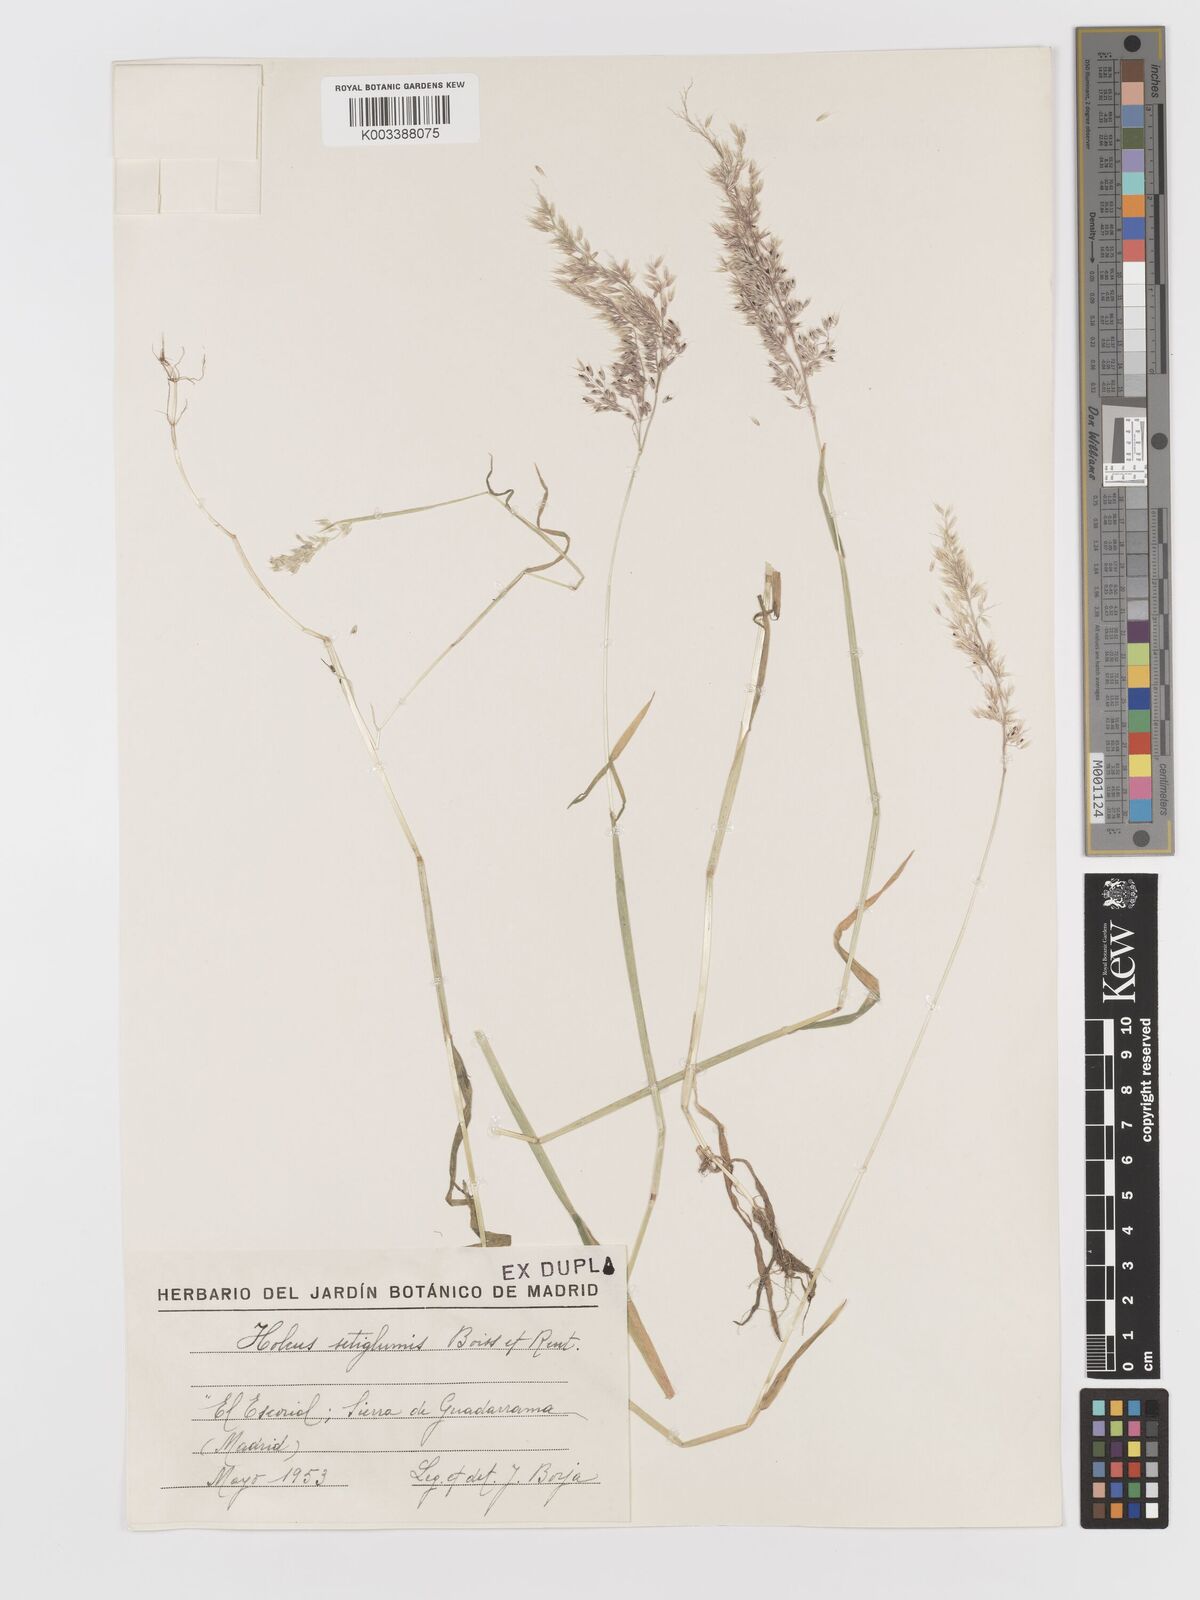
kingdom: Plantae
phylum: Tracheophyta
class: Liliopsida
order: Poales
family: Poaceae
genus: Holcus
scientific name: Holcus annuus
